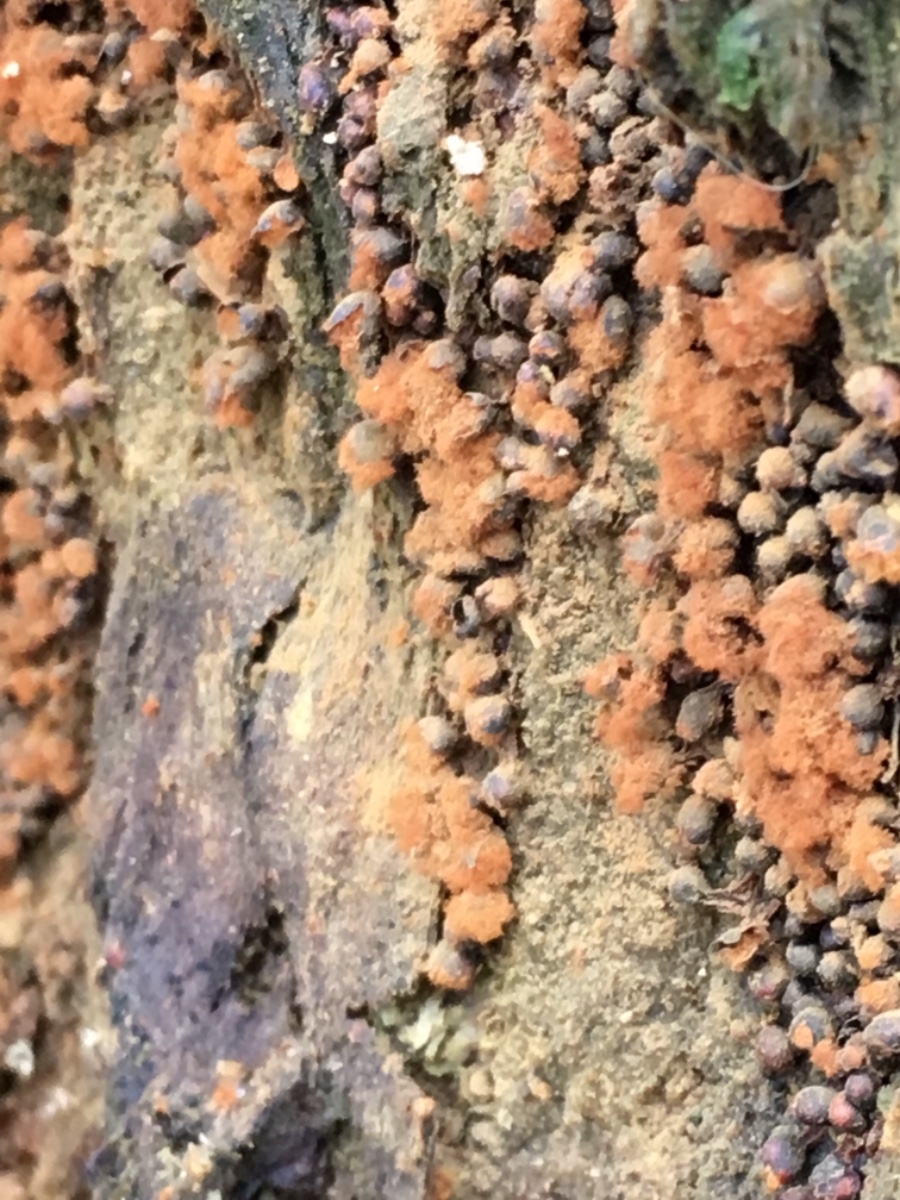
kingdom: Protozoa
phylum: Mycetozoa
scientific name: Mycetozoa
